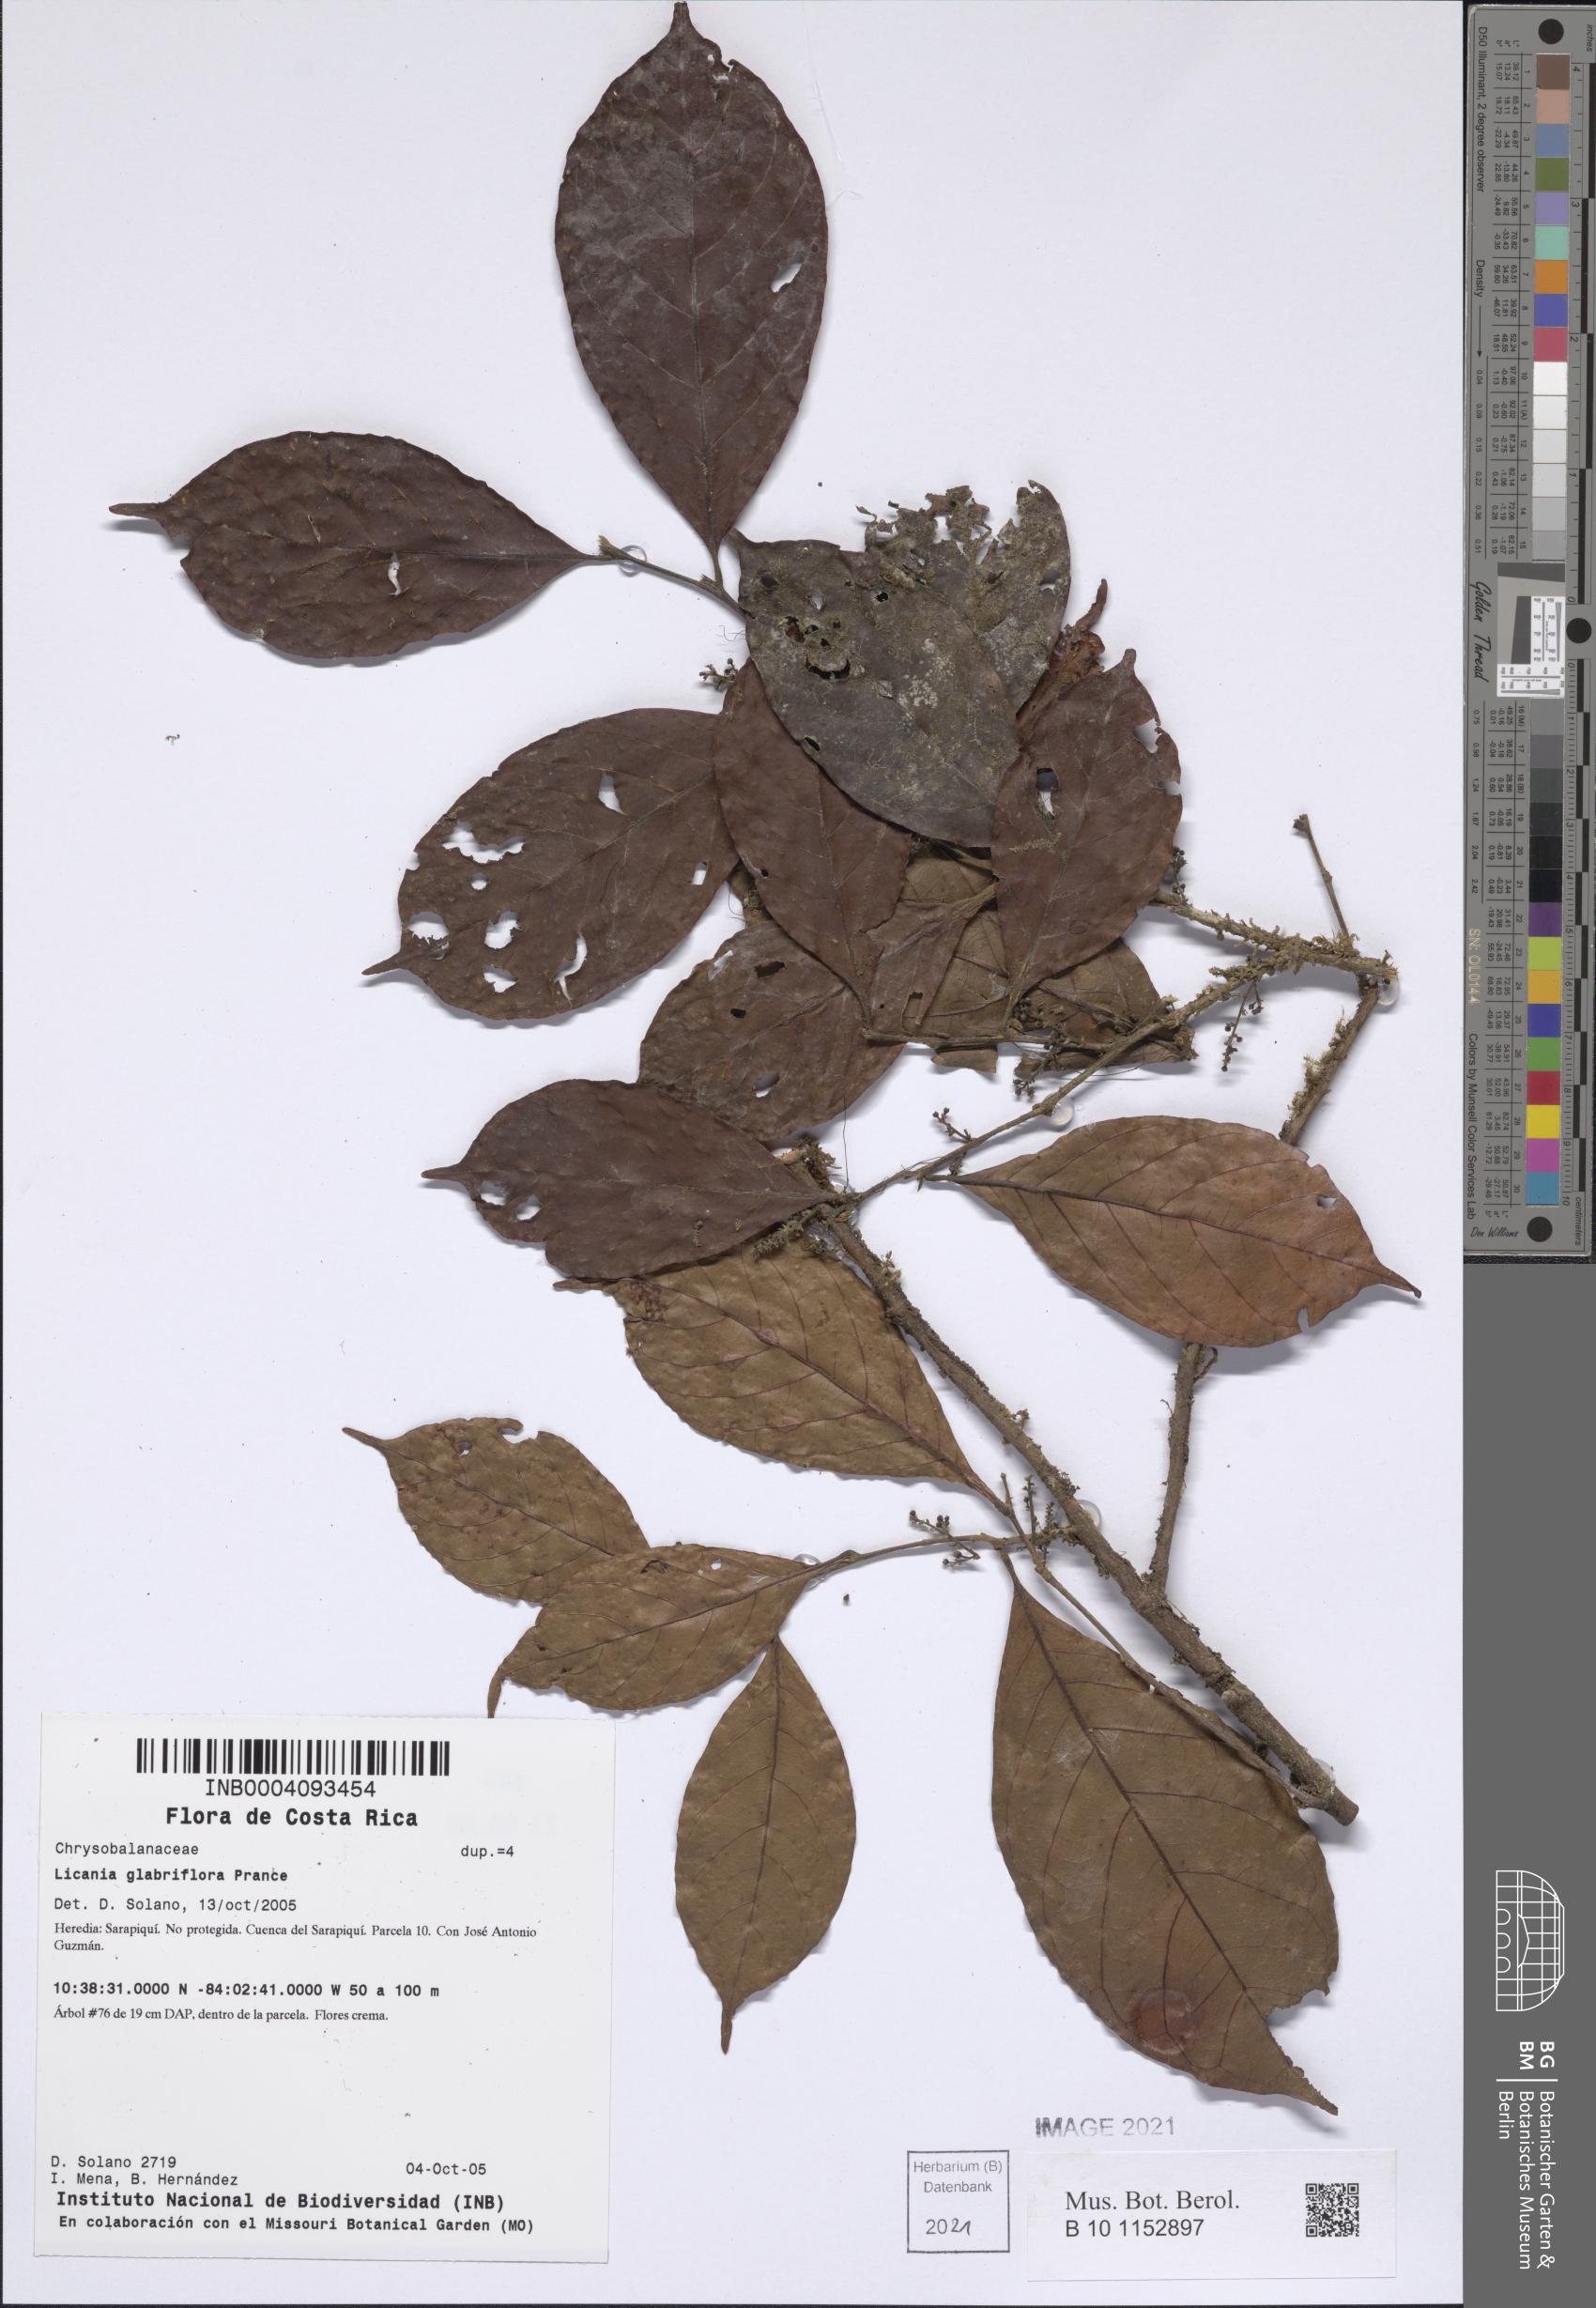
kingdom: Plantae
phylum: Tracheophyta
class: Magnoliopsida
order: Malpighiales
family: Chrysobalanaceae
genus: Hymenopus
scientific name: Hymenopus arachicarpus
